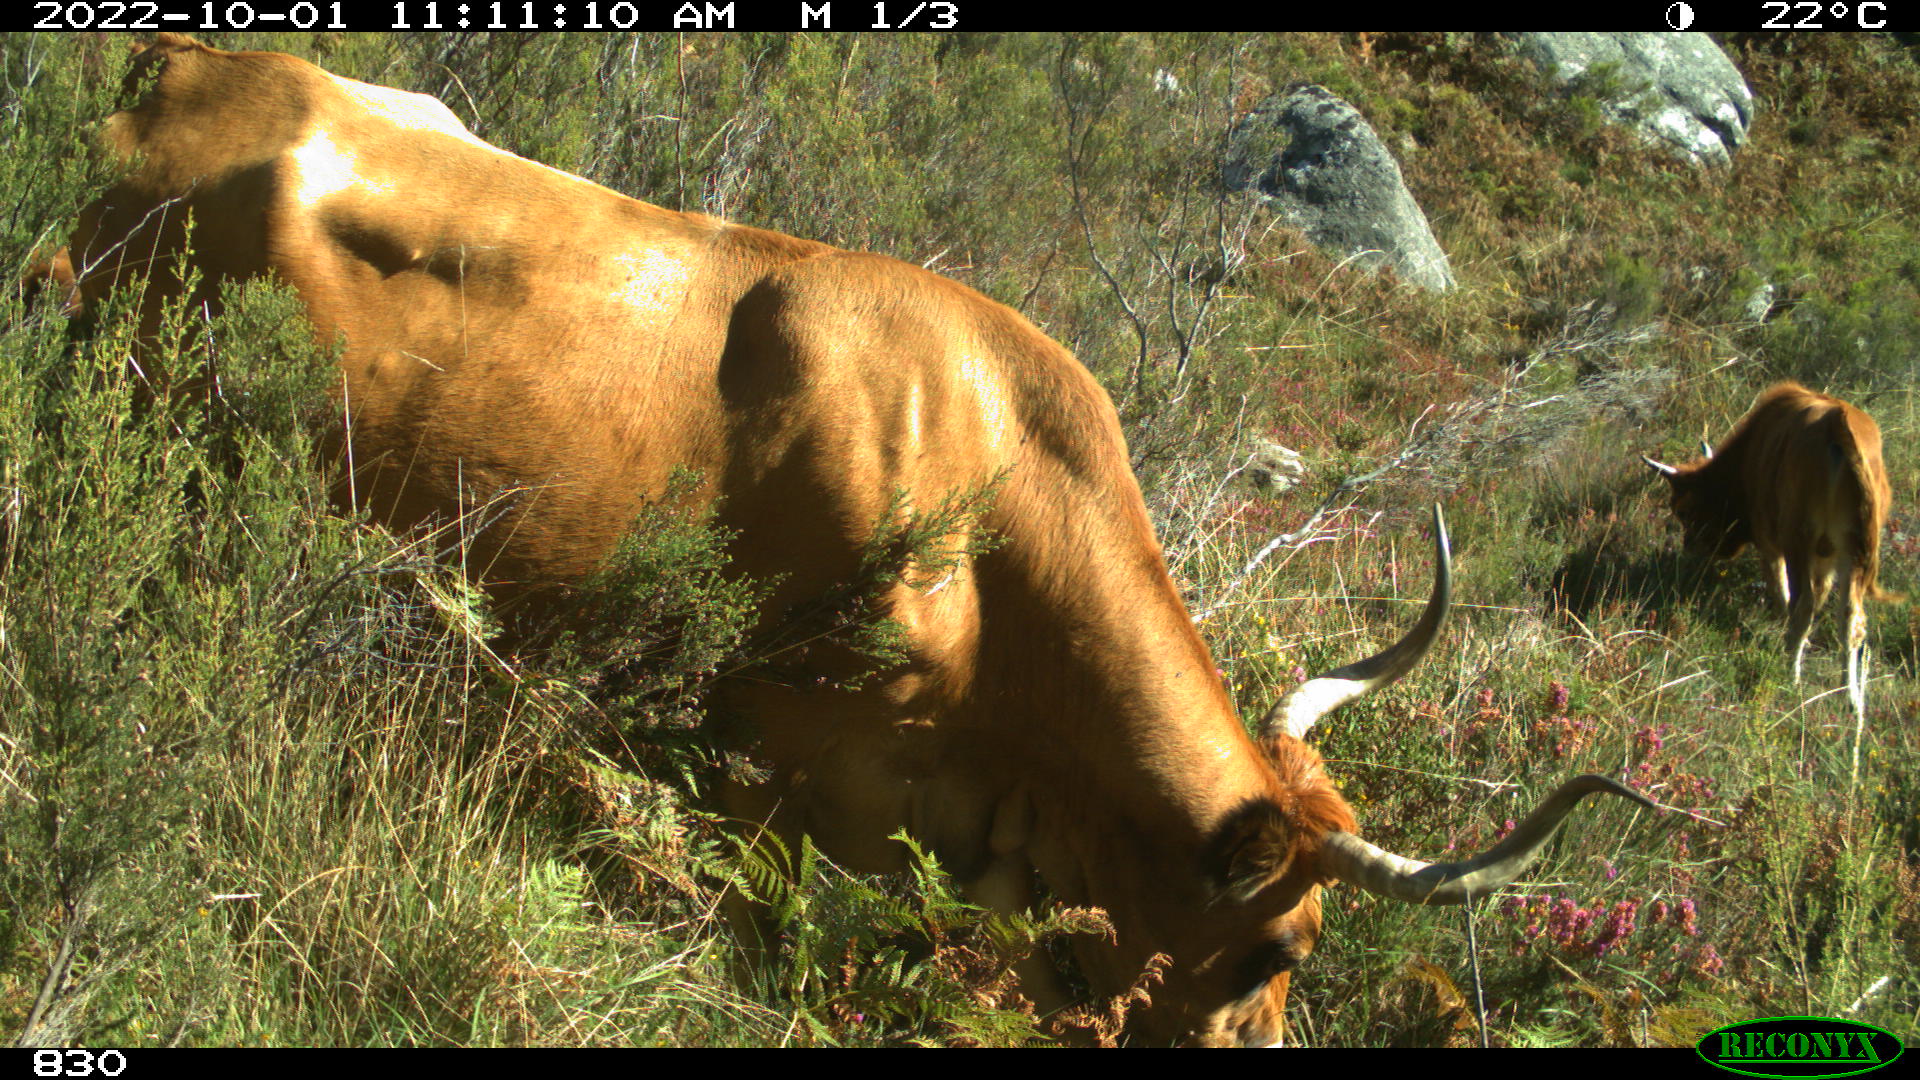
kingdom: Animalia
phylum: Chordata
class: Mammalia
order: Artiodactyla
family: Bovidae
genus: Bos
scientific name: Bos taurus
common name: Domesticated cattle
